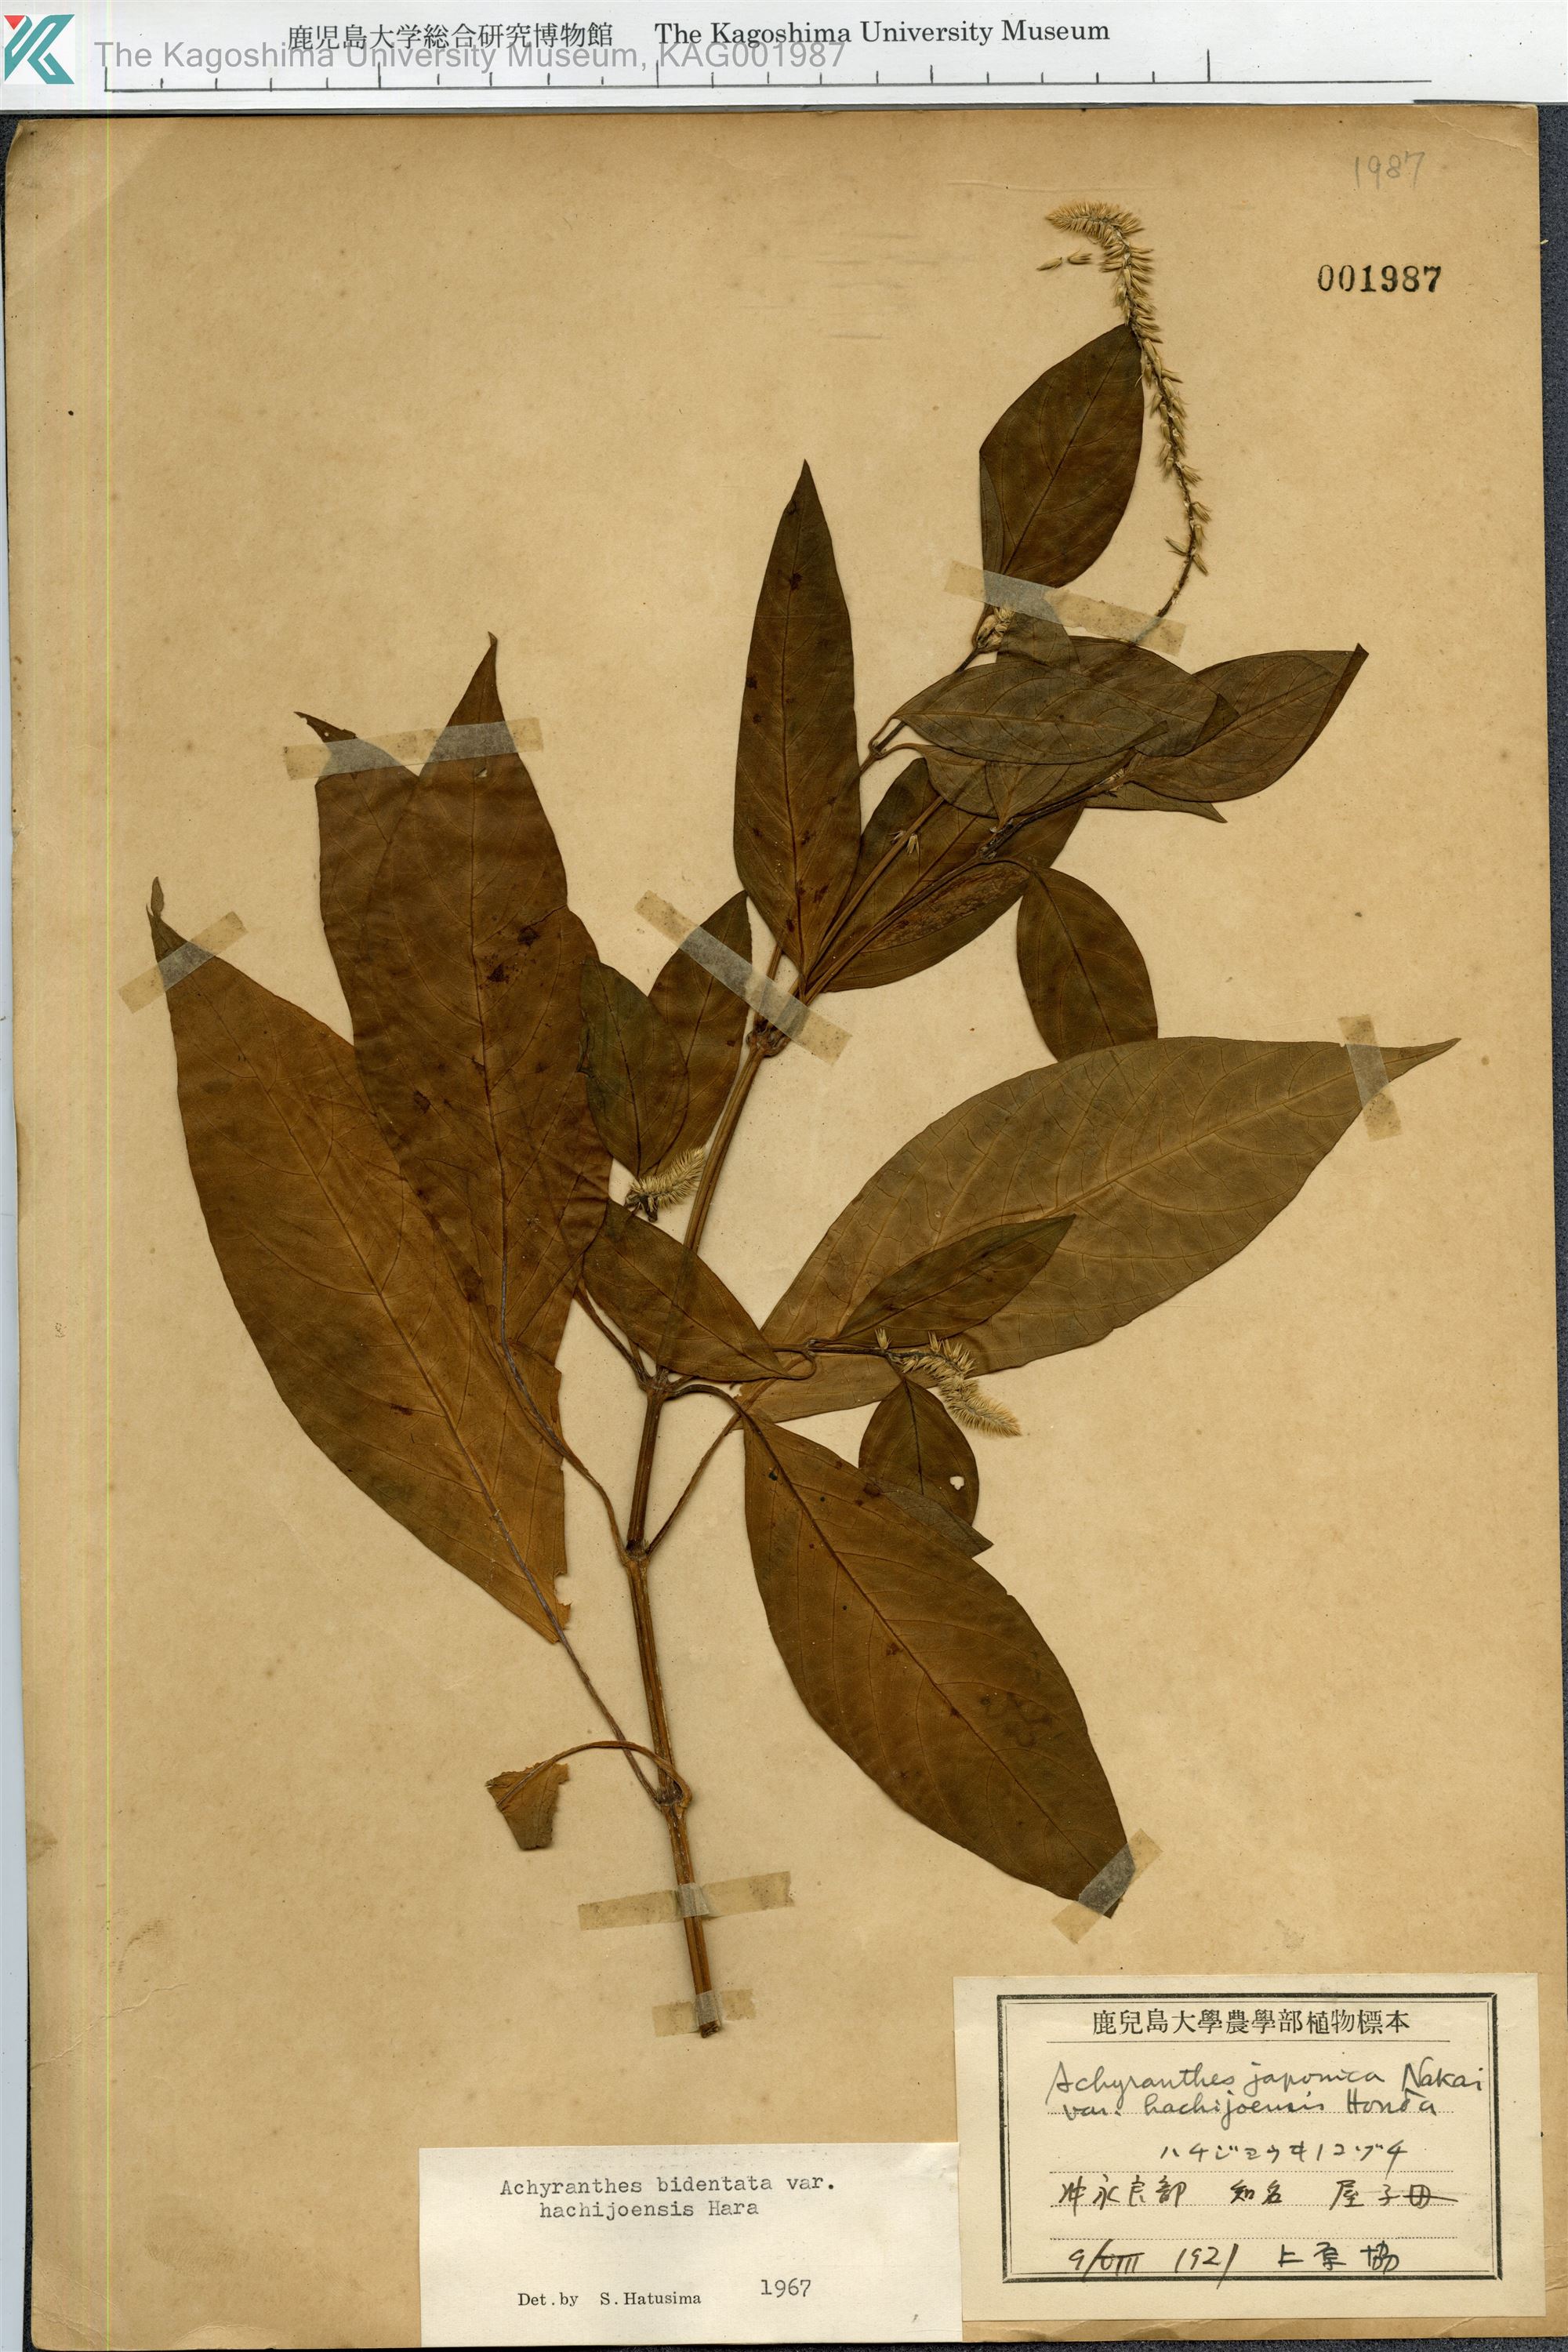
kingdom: Plantae
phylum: Tracheophyta
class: Magnoliopsida
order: Caryophyllales
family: Amaranthaceae
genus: Achyranthes
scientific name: Achyranthes bidentata
